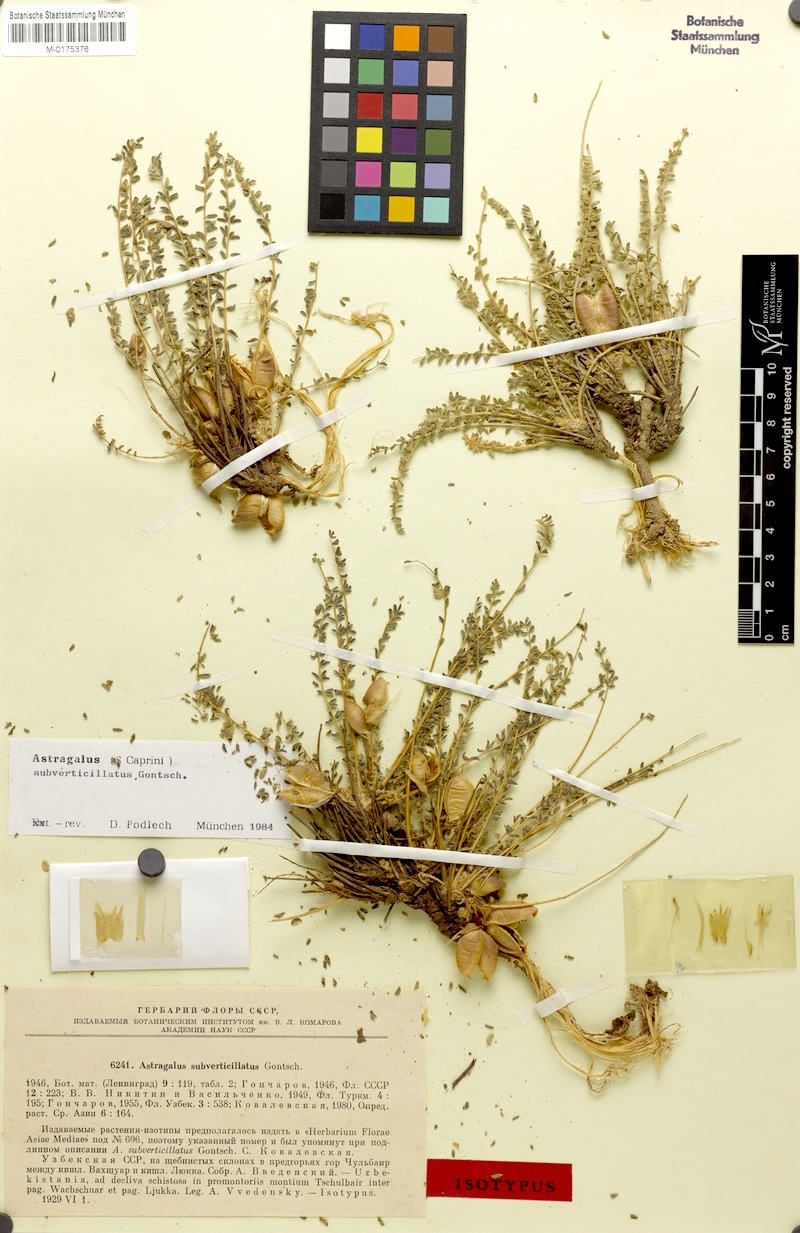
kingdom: Plantae
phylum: Tracheophyta
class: Magnoliopsida
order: Fabales
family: Fabaceae
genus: Astragalus
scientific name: Astragalus subverticillatus
